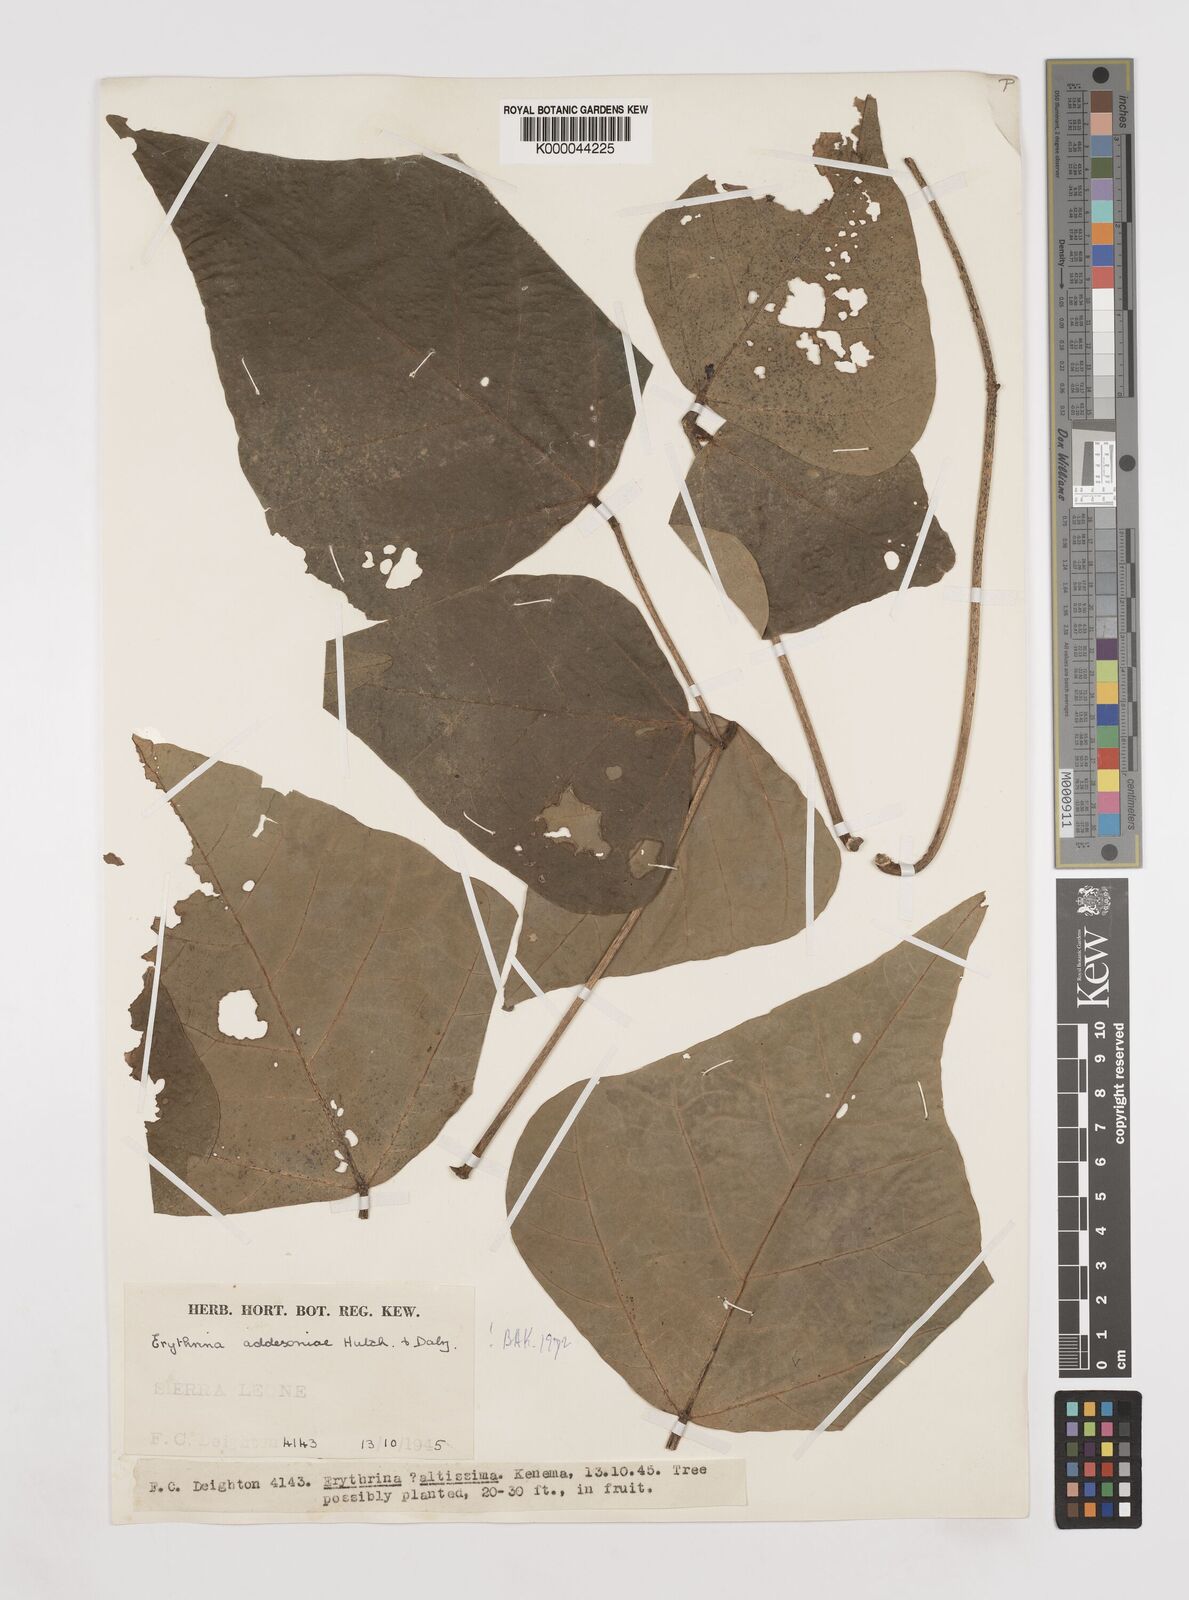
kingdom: Plantae
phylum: Tracheophyta
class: Magnoliopsida
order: Fabales
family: Fabaceae
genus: Erythrina
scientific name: Erythrina addisoniae
